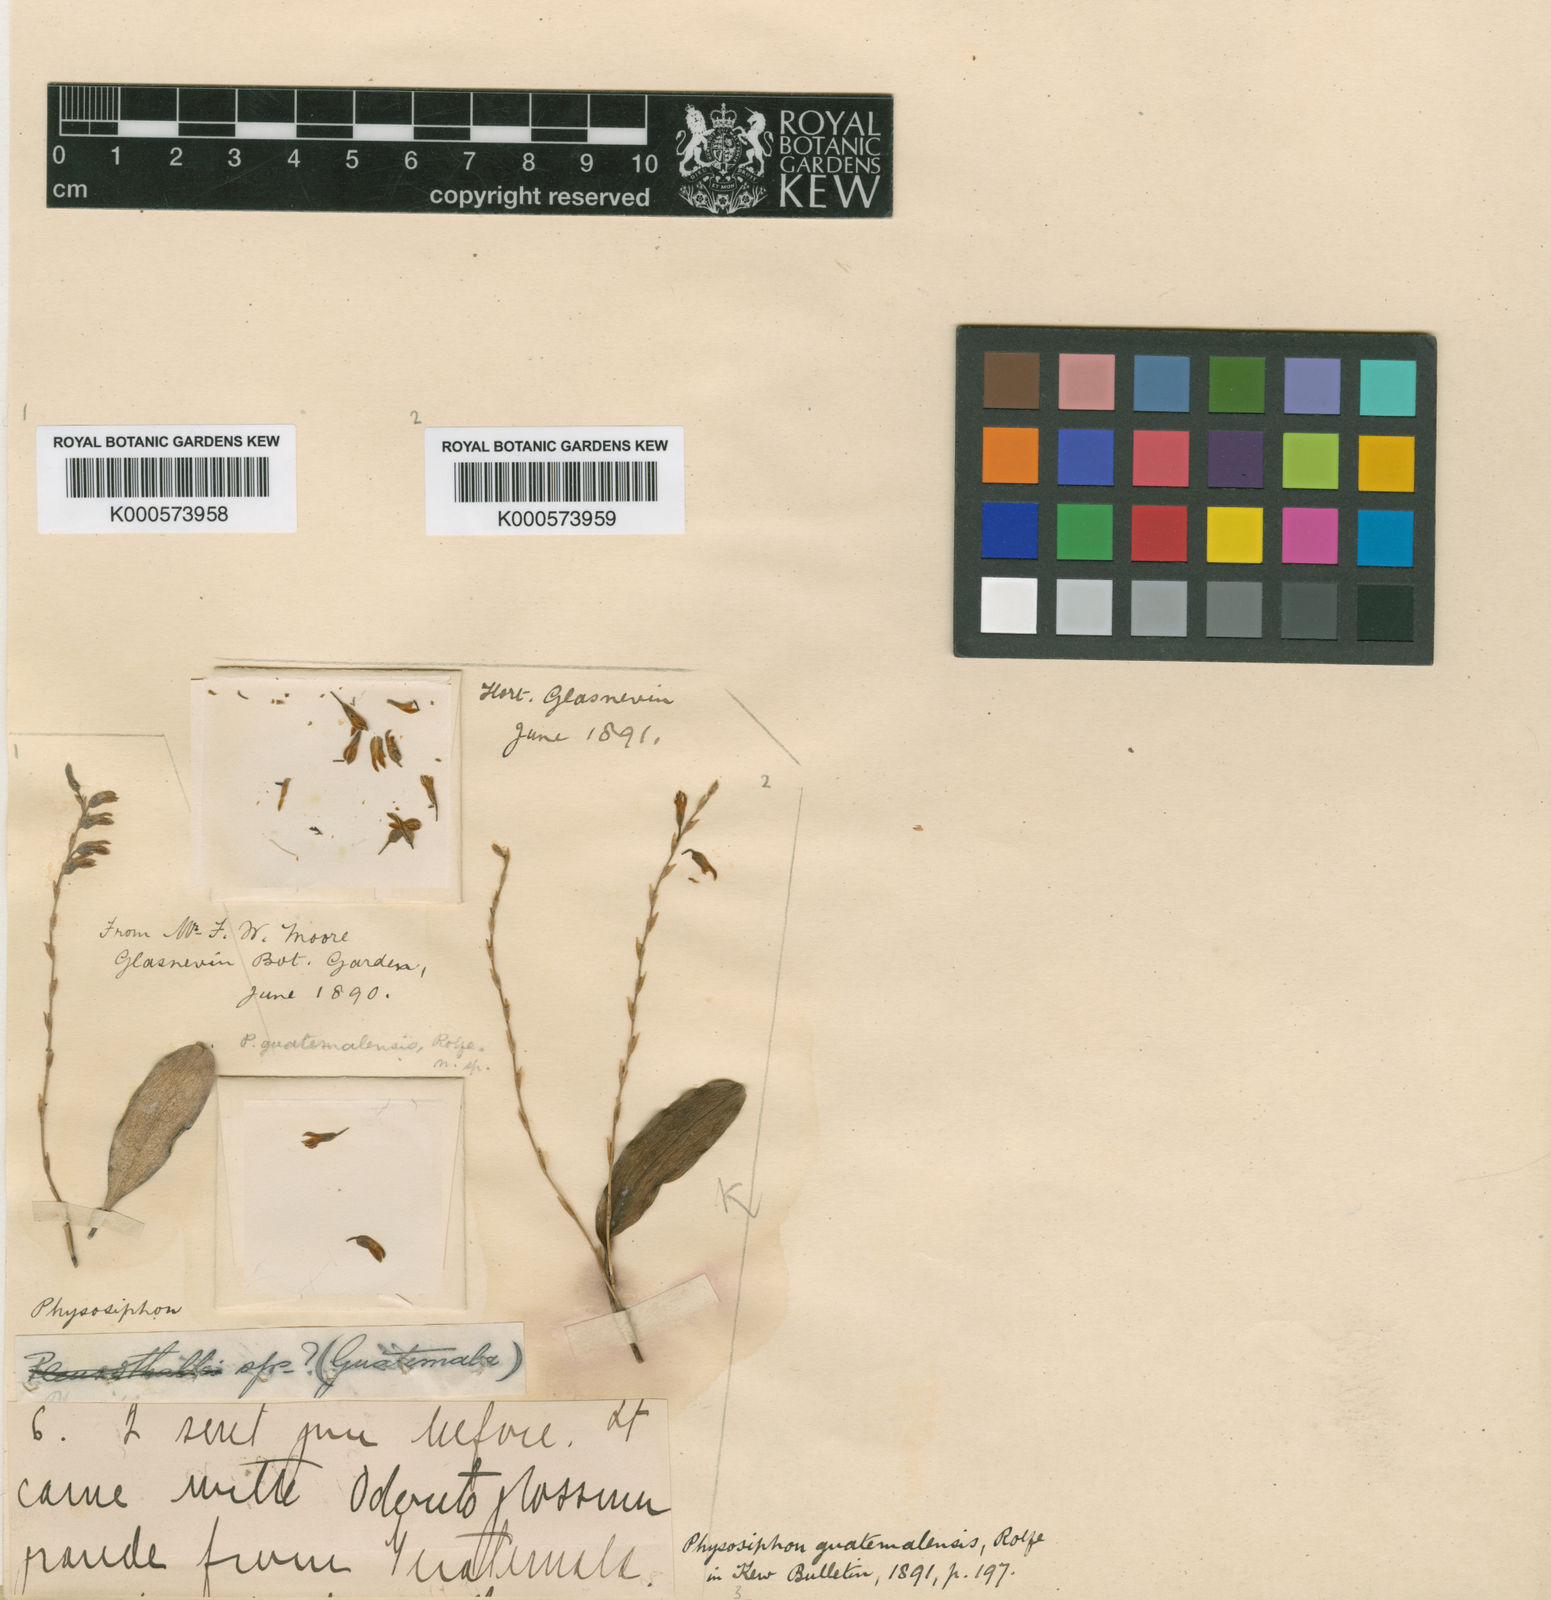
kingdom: Plantae
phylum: Tracheophyta
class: Liliopsida
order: Asparagales
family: Orchidaceae
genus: Stelis
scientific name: Stelis emarginata
